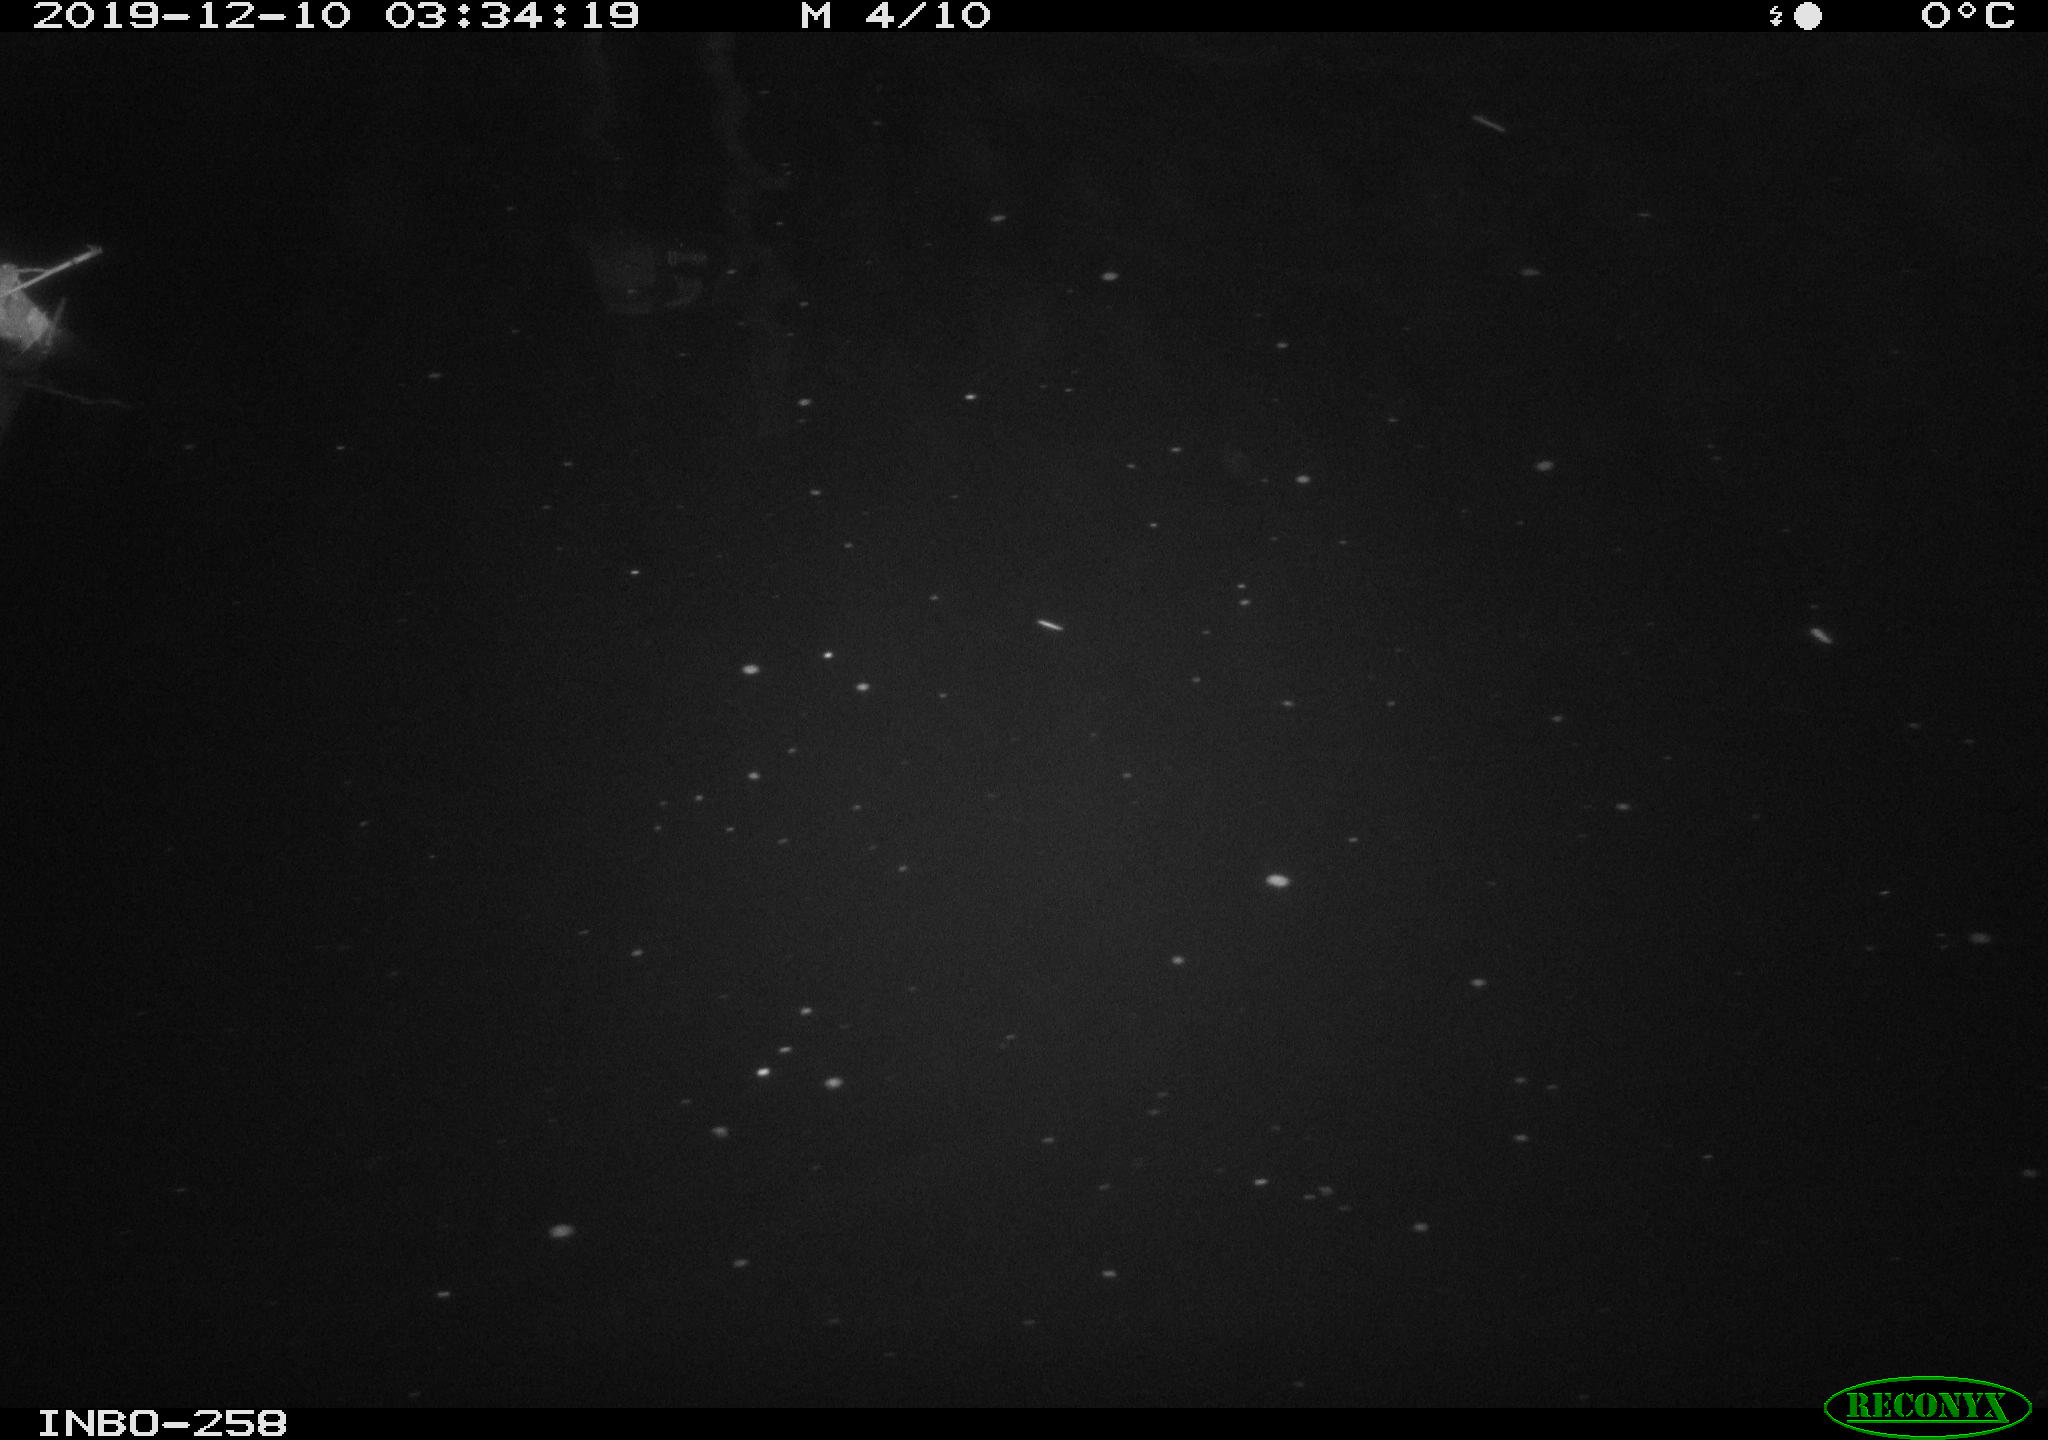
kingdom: Animalia
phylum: Chordata
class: Aves
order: Anseriformes
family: Anatidae
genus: Anas
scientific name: Anas platyrhynchos
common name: Mallard
